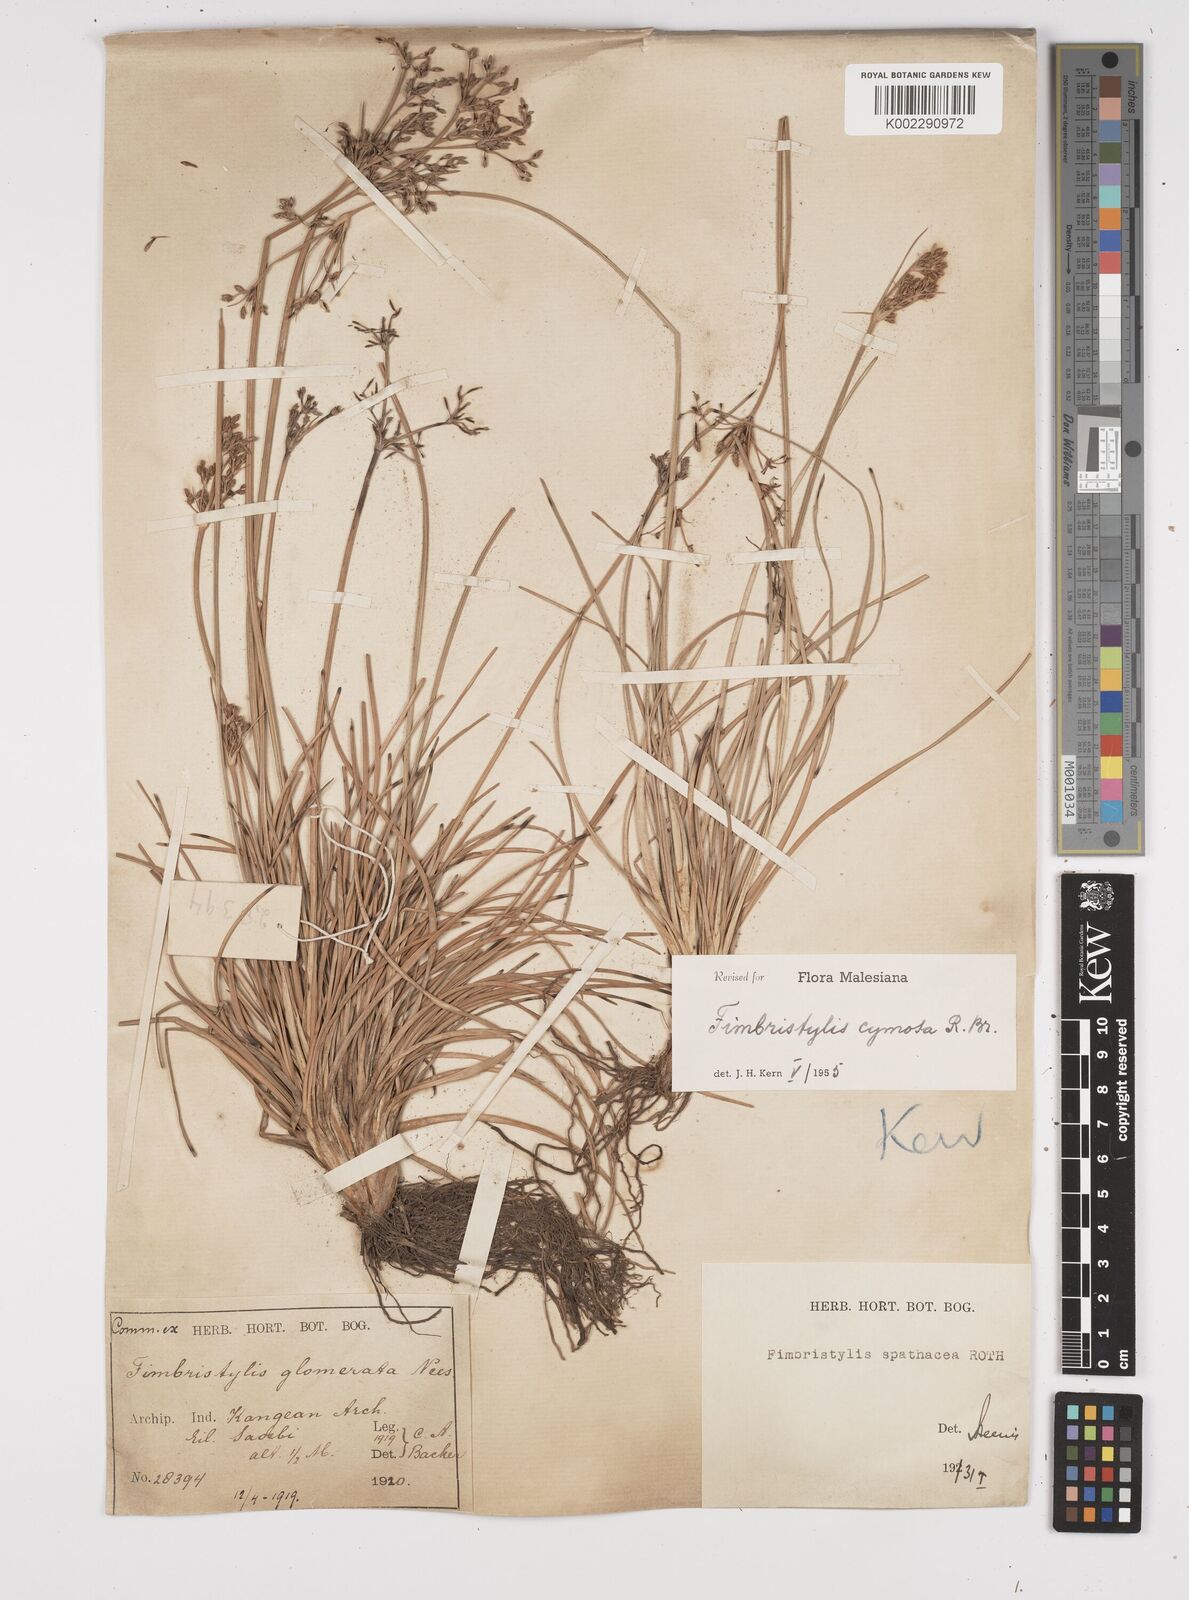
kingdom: Plantae
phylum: Tracheophyta
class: Liliopsida
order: Poales
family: Cyperaceae
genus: Fimbristylis
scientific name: Fimbristylis cymosa
